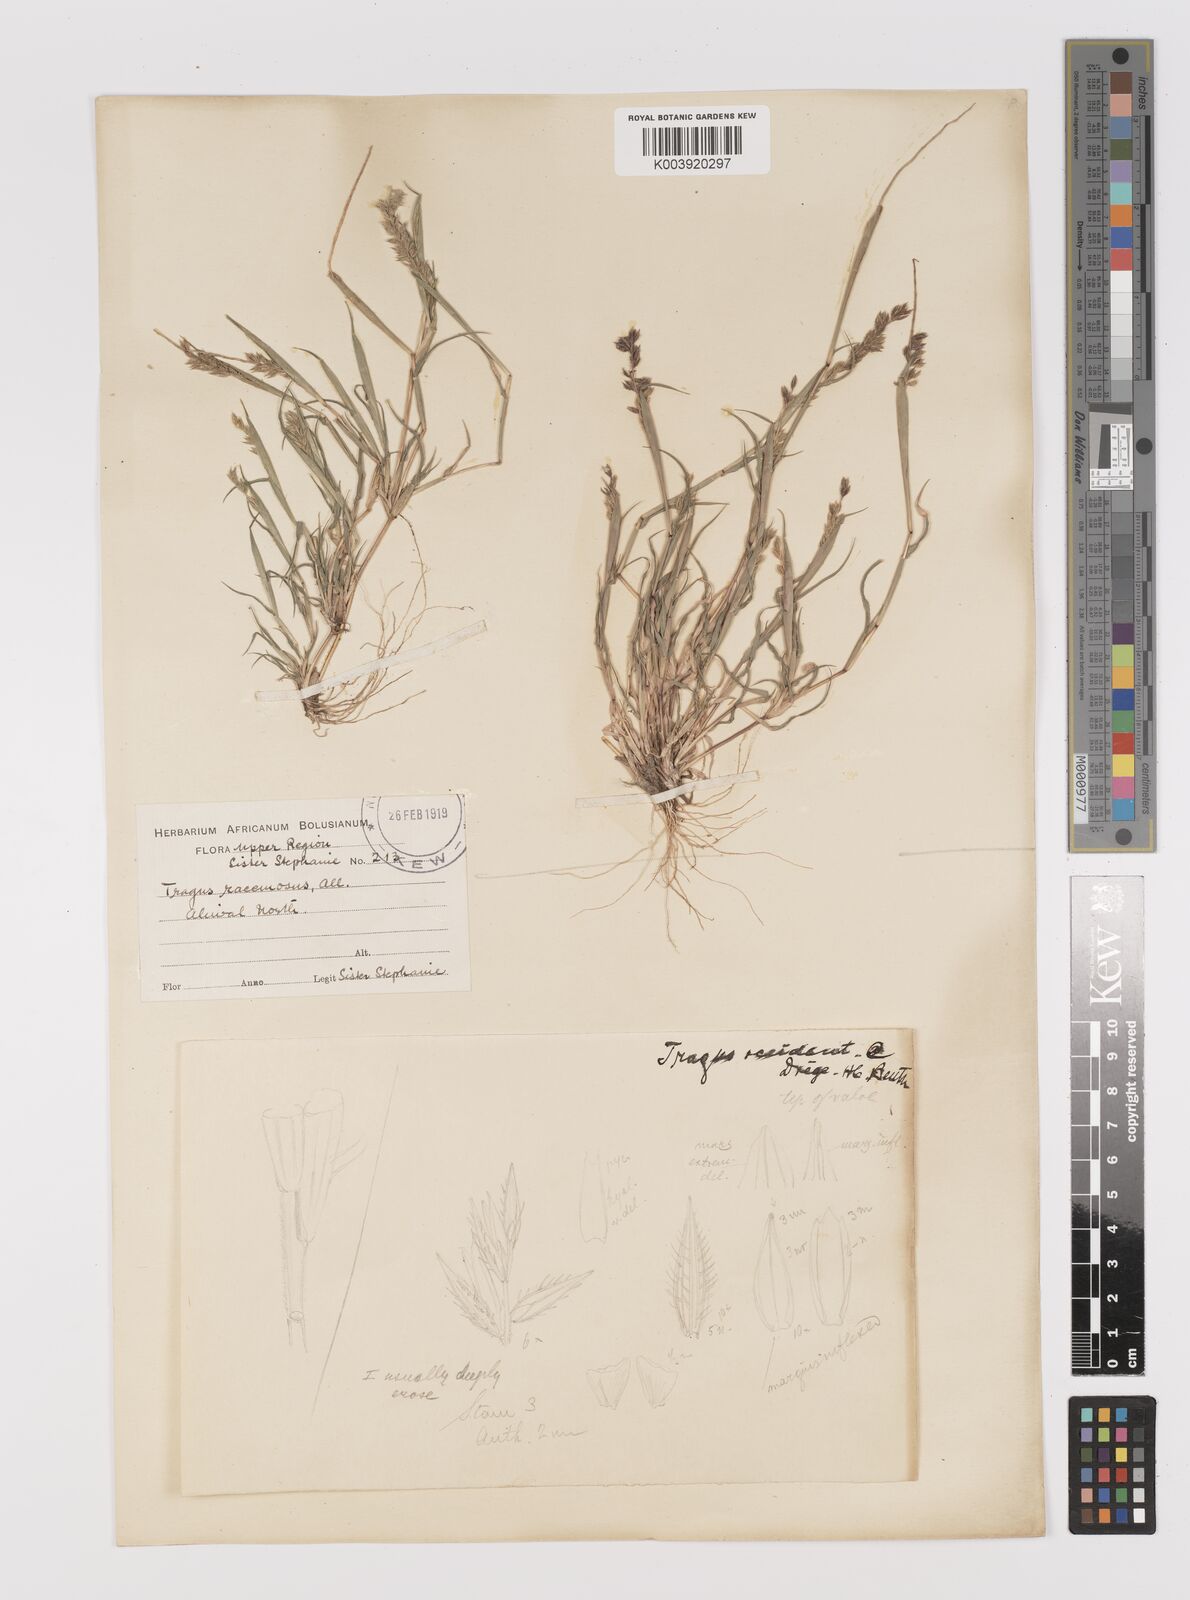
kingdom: Plantae
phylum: Tracheophyta
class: Liliopsida
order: Poales
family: Poaceae
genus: Tragus
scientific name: Tragus racemosus
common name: European bur-grass
